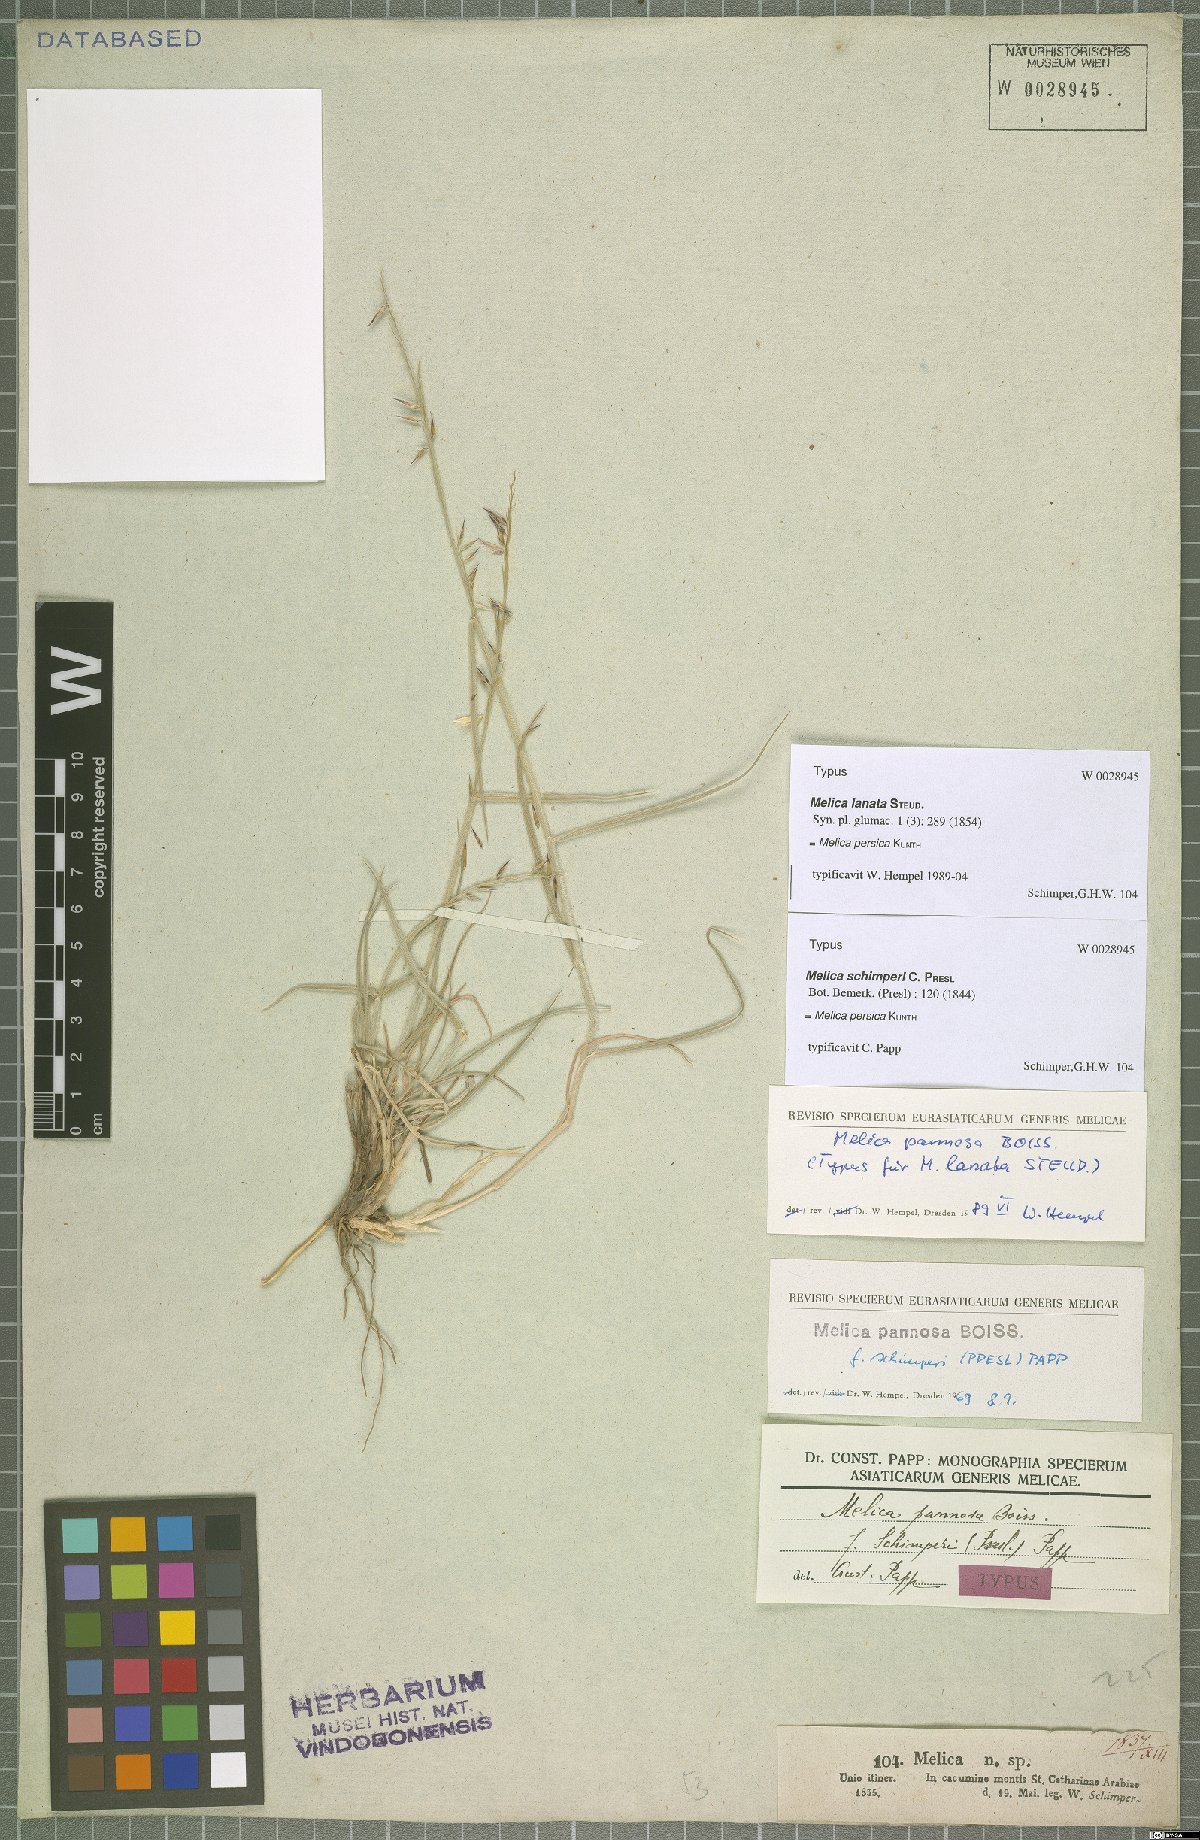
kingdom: Plantae
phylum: Tracheophyta
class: Liliopsida
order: Poales
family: Poaceae
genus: Melica
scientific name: Melica persica
